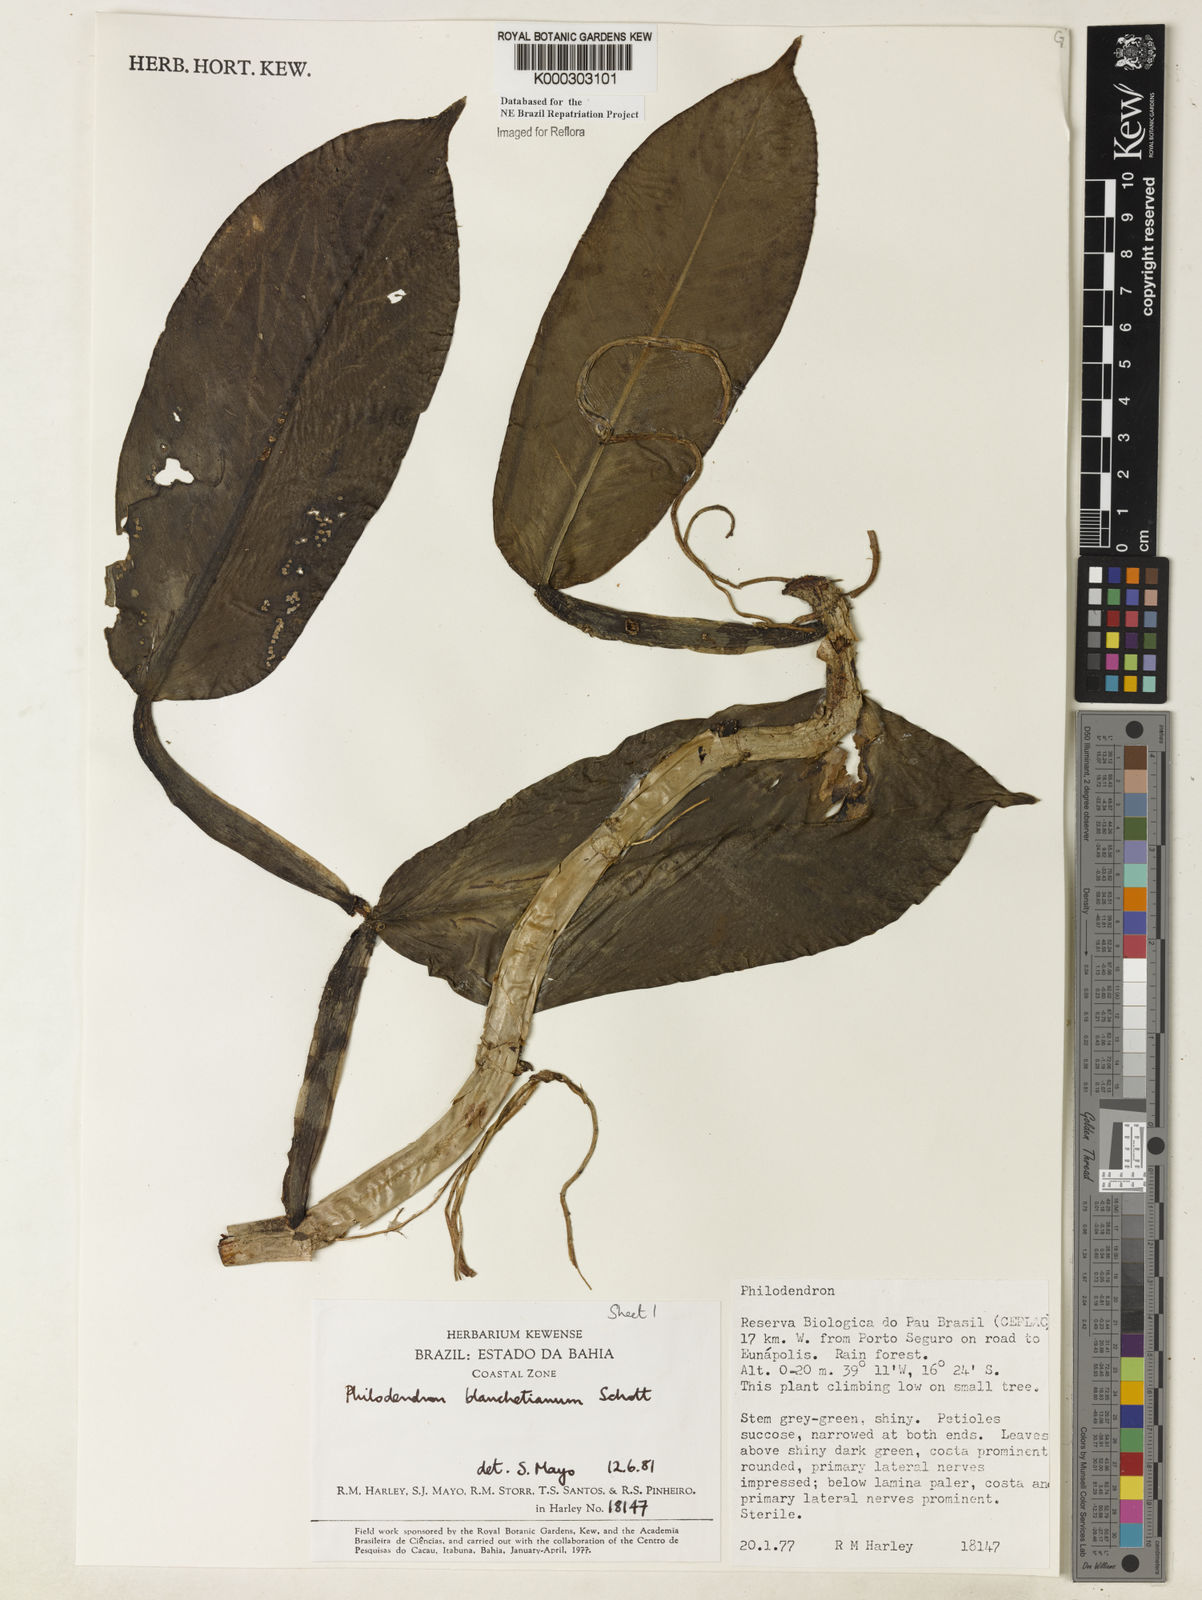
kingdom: Plantae
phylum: Tracheophyta
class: Liliopsida
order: Alismatales
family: Araceae
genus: Philodendron
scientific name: Philodendron blanchetianum
